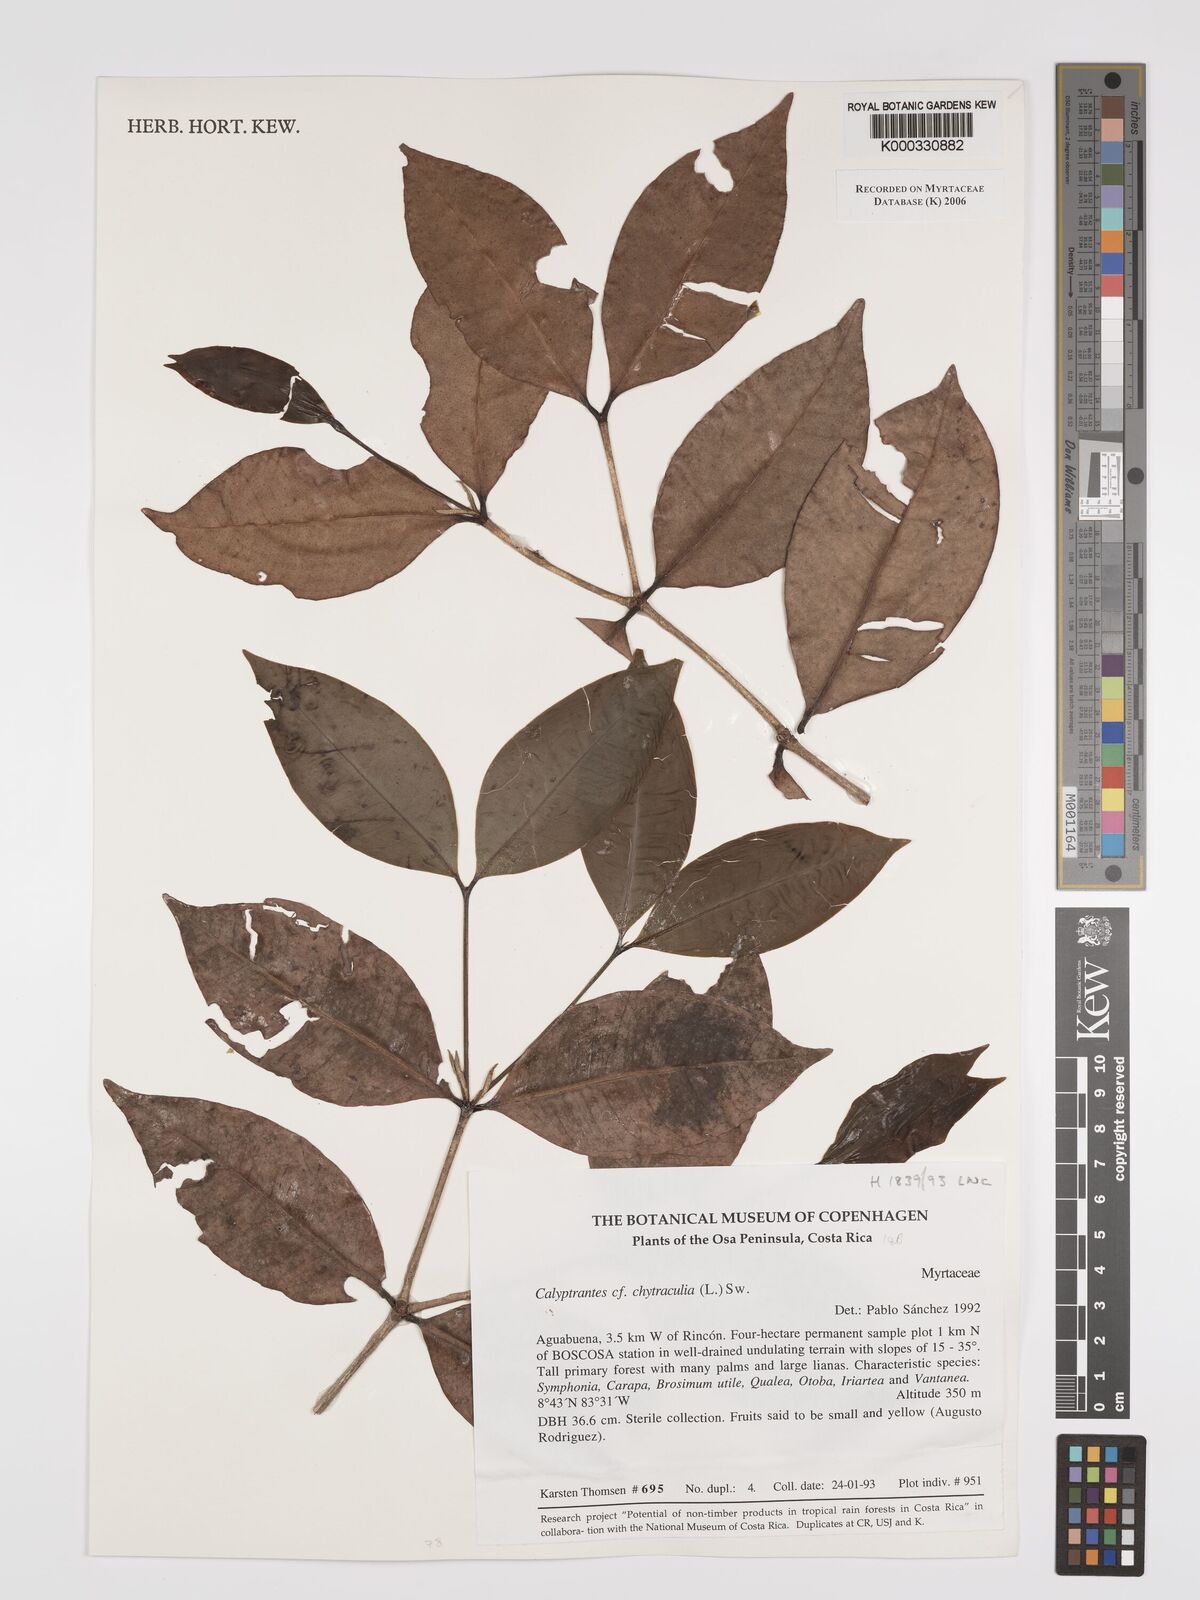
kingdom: Plantae
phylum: Tracheophyta
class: Magnoliopsida
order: Myrtales
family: Myrtaceae
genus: Myrcia
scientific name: Myrcia chytraculia
